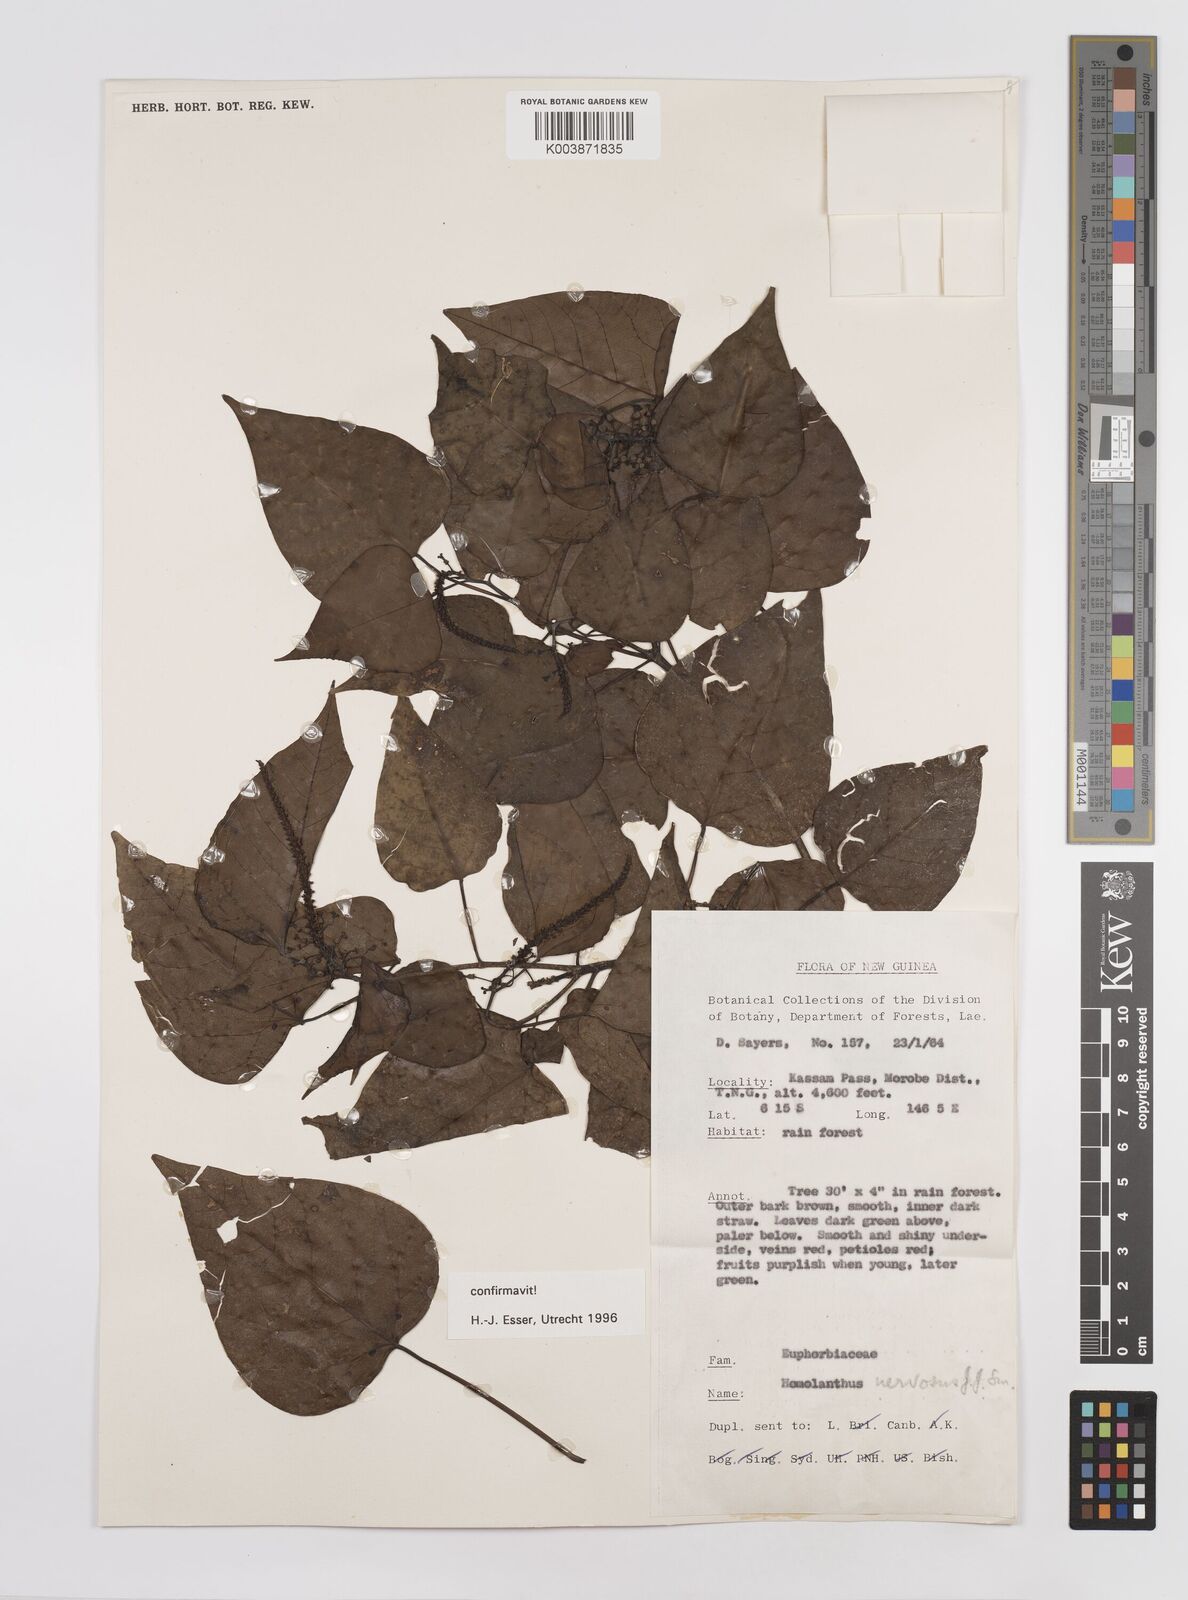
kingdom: Plantae
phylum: Tracheophyta
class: Magnoliopsida
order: Malpighiales
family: Euphorbiaceae
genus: Homalanthus
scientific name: Homalanthus nervosus
